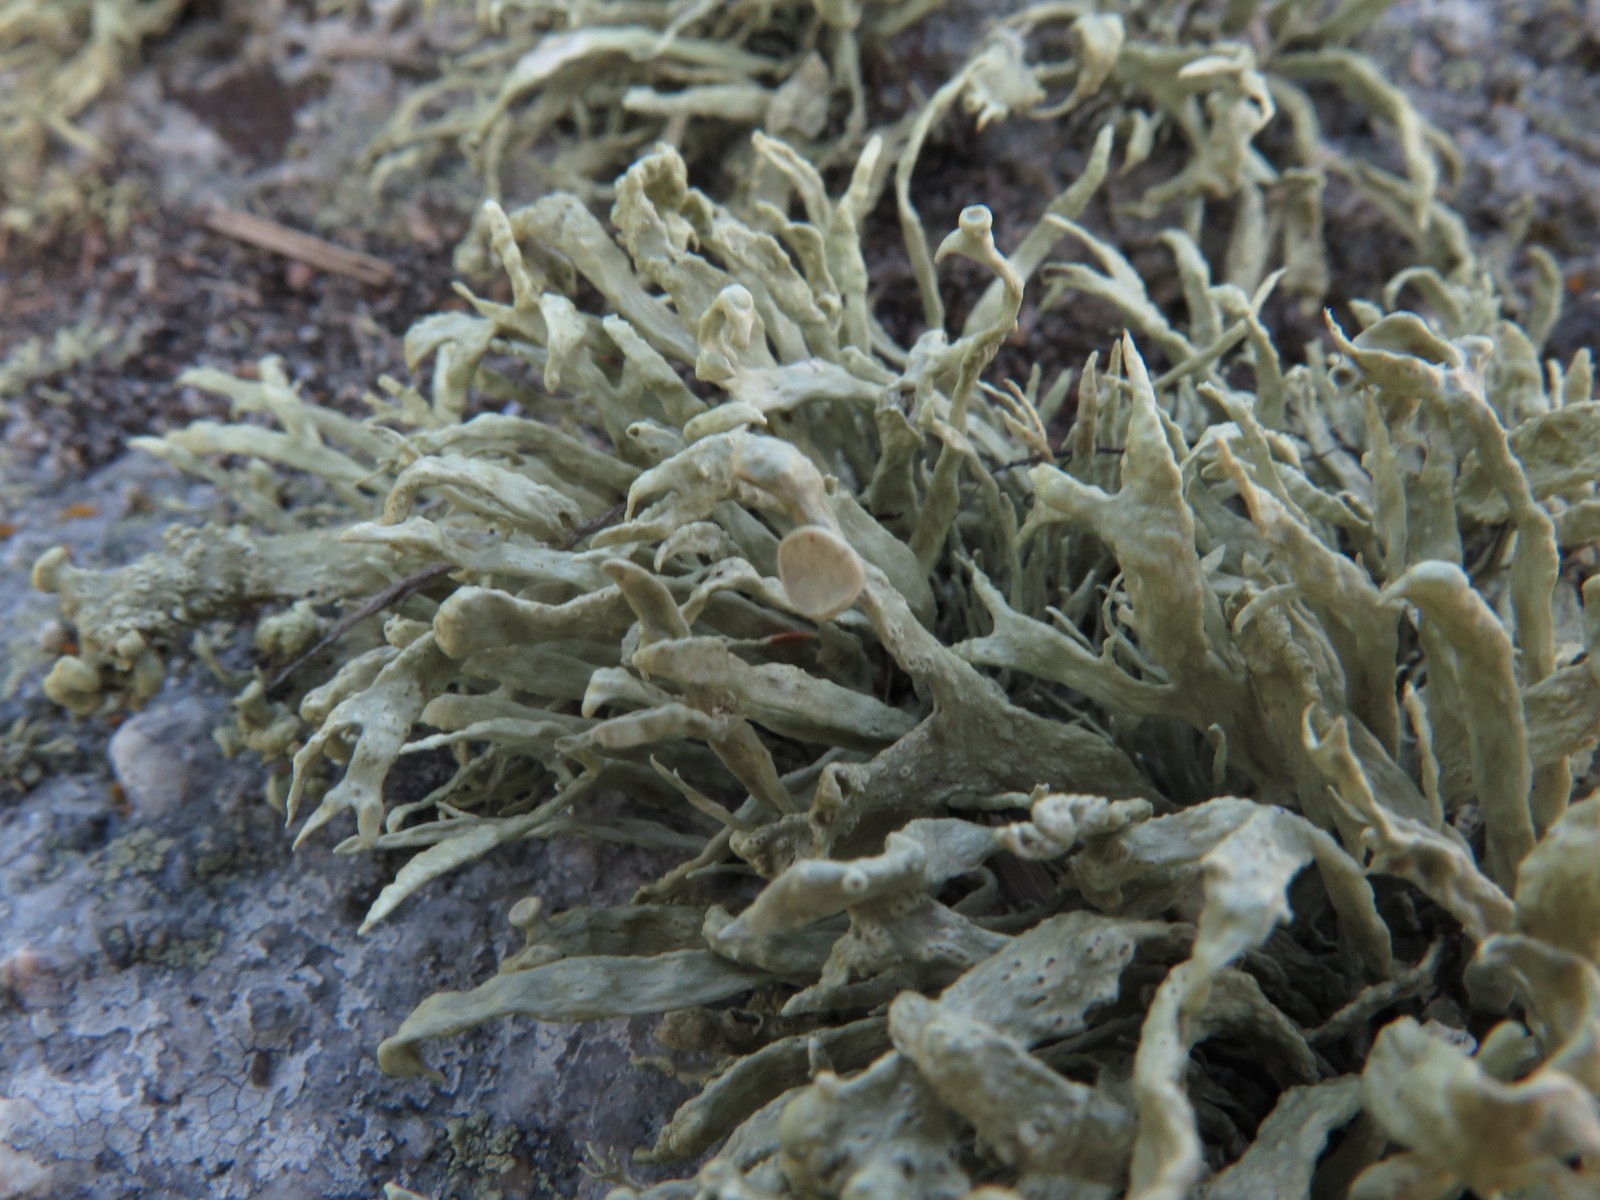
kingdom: Fungi
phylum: Ascomycota
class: Lecanoromycetes
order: Lecanorales
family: Ramalinaceae
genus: Ramalina
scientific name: Ramalina cuspidata
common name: børste-grenlav
